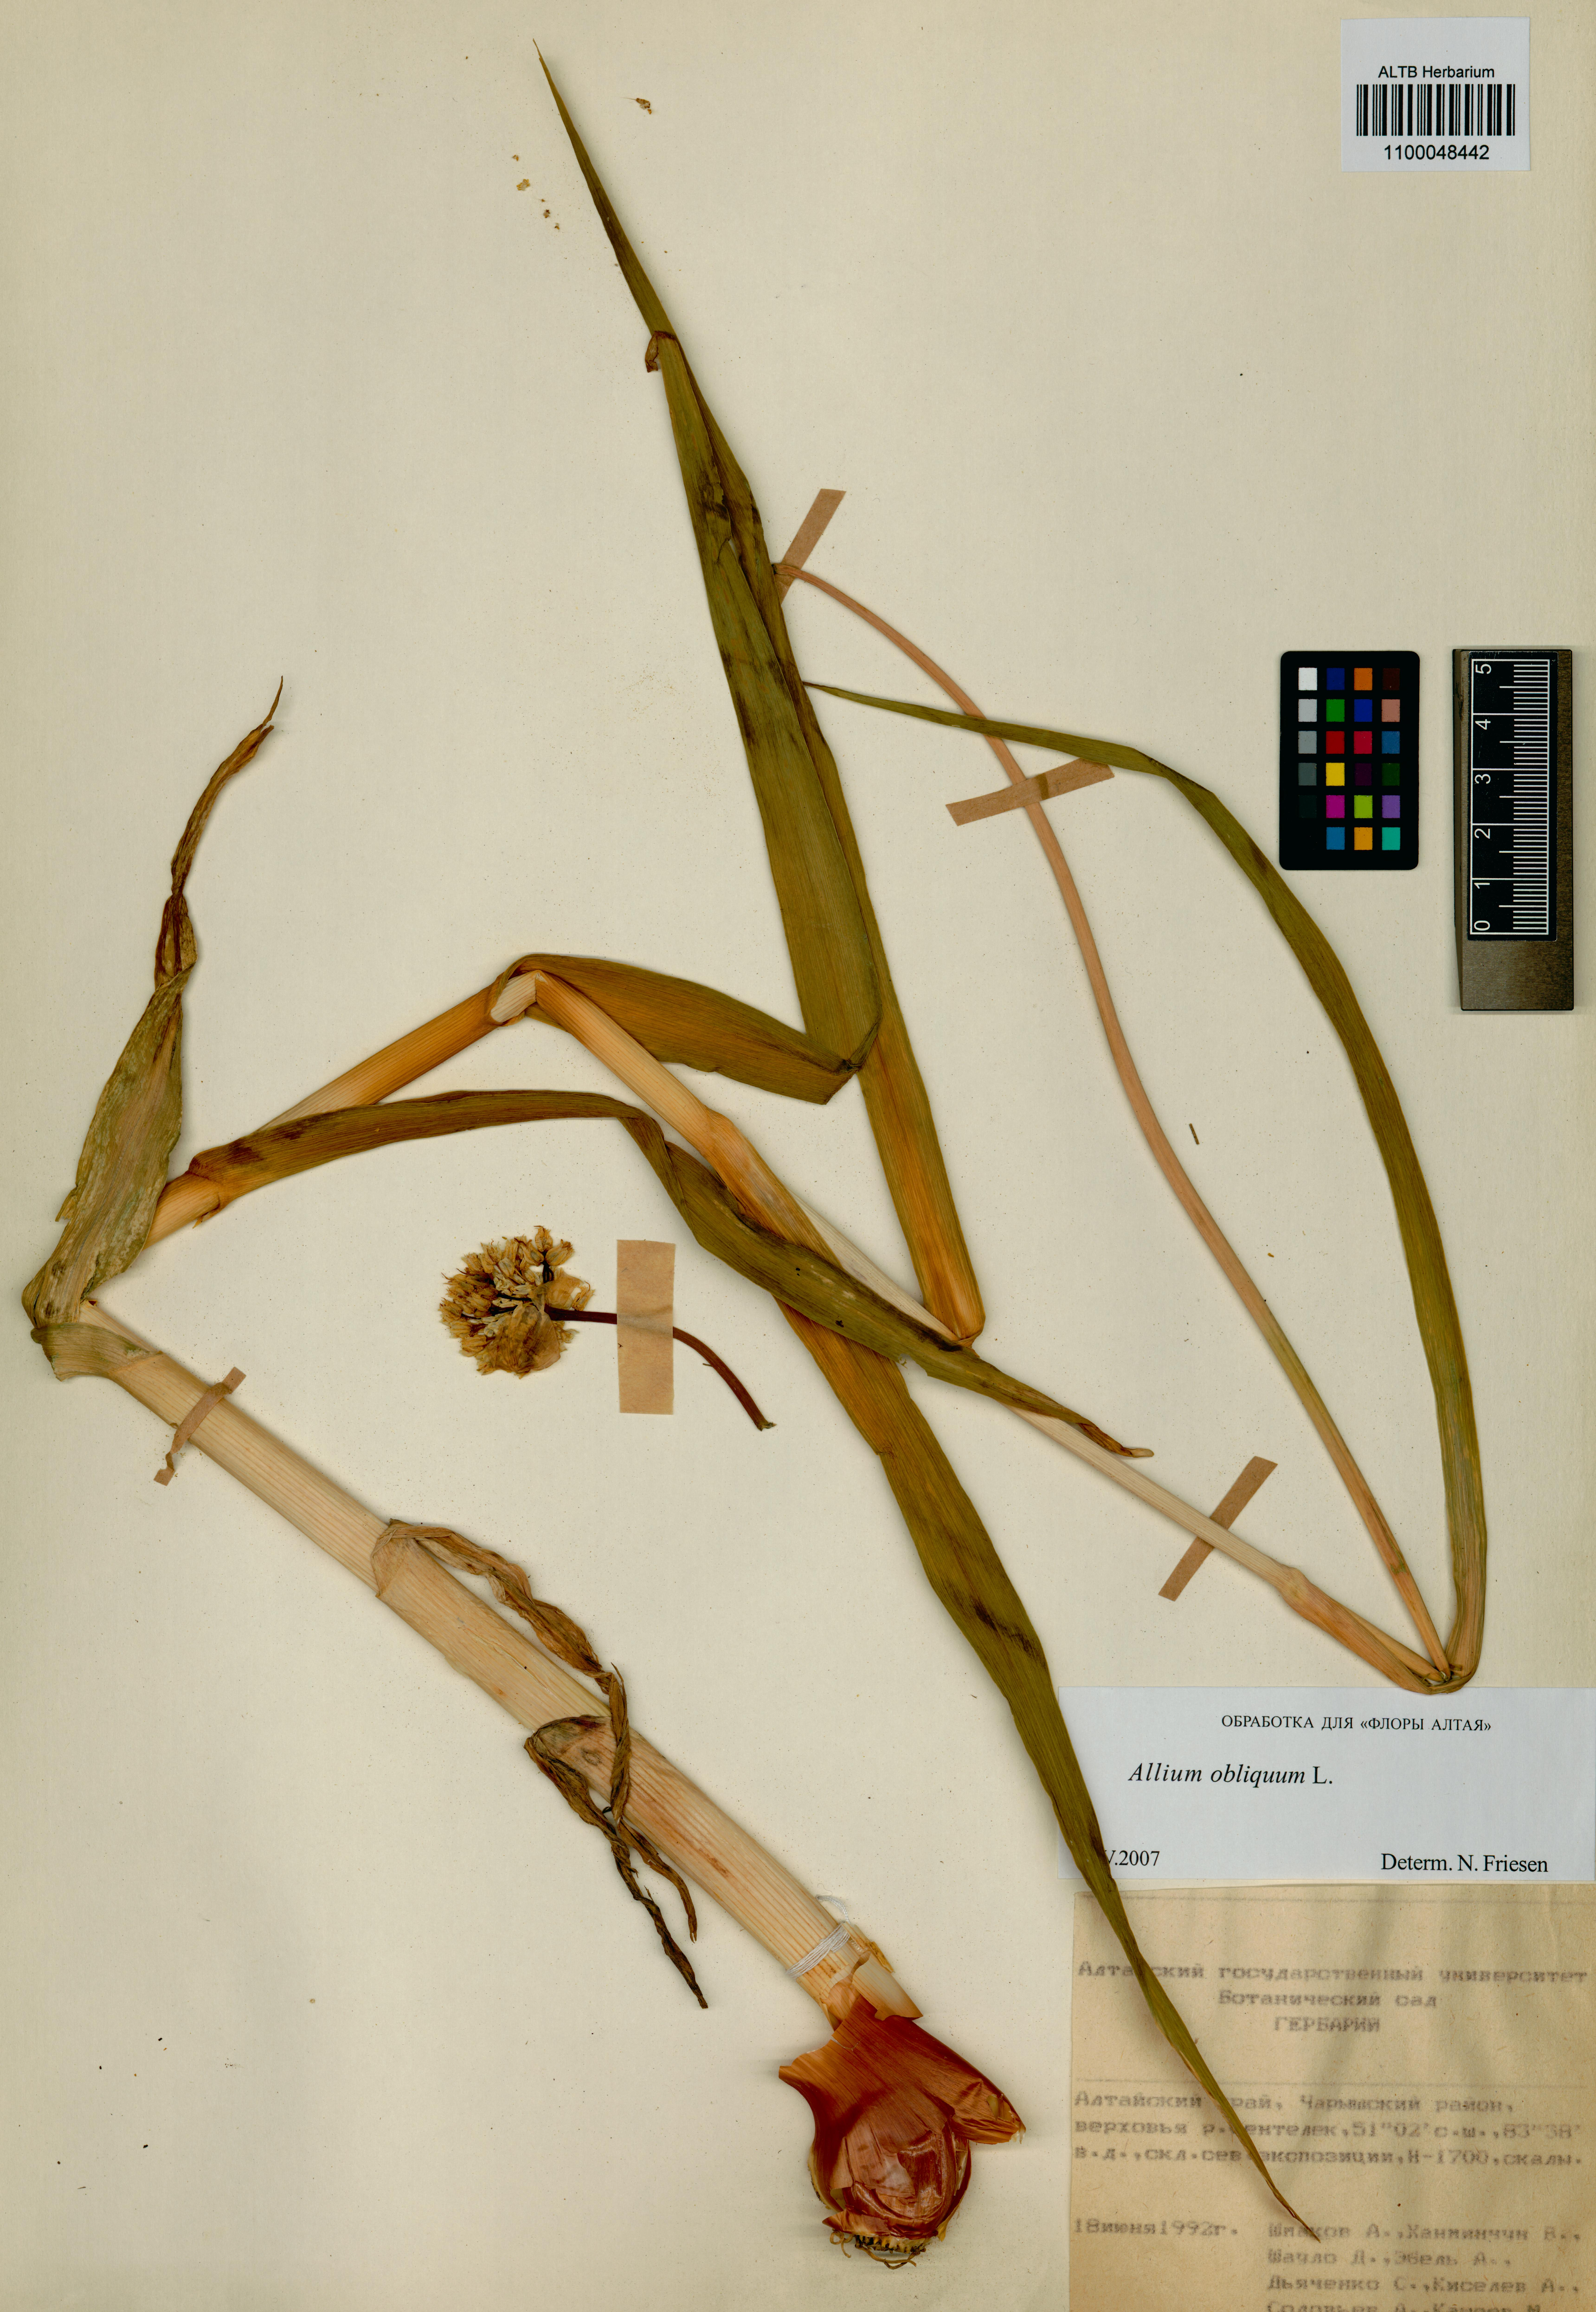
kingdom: Plantae
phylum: Tracheophyta
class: Liliopsida
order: Asparagales
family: Amaryllidaceae
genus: Allium
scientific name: Allium obliquum
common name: Oblique onion
